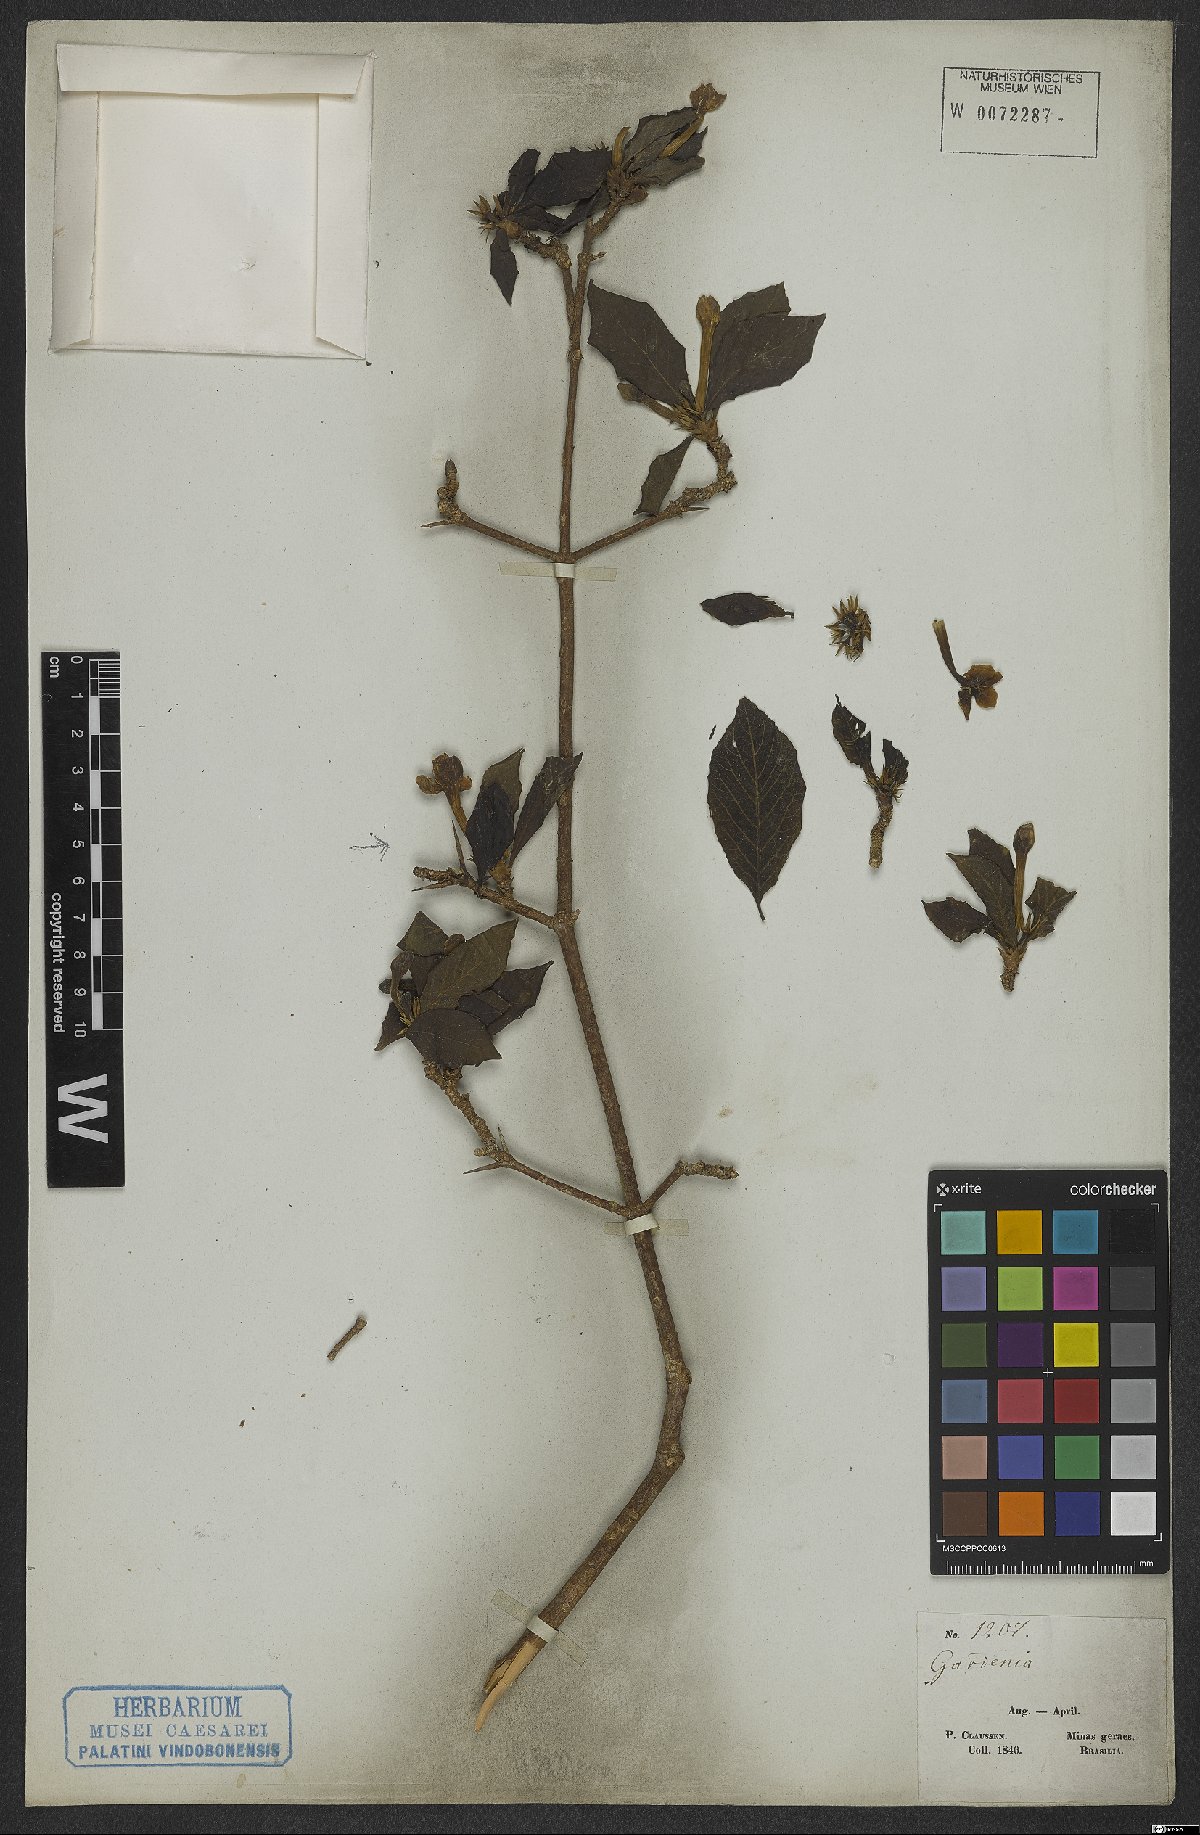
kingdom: Plantae
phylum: Tracheophyta
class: Magnoliopsida
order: Gentianales
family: Rubiaceae
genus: Randia
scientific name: Randia armata
